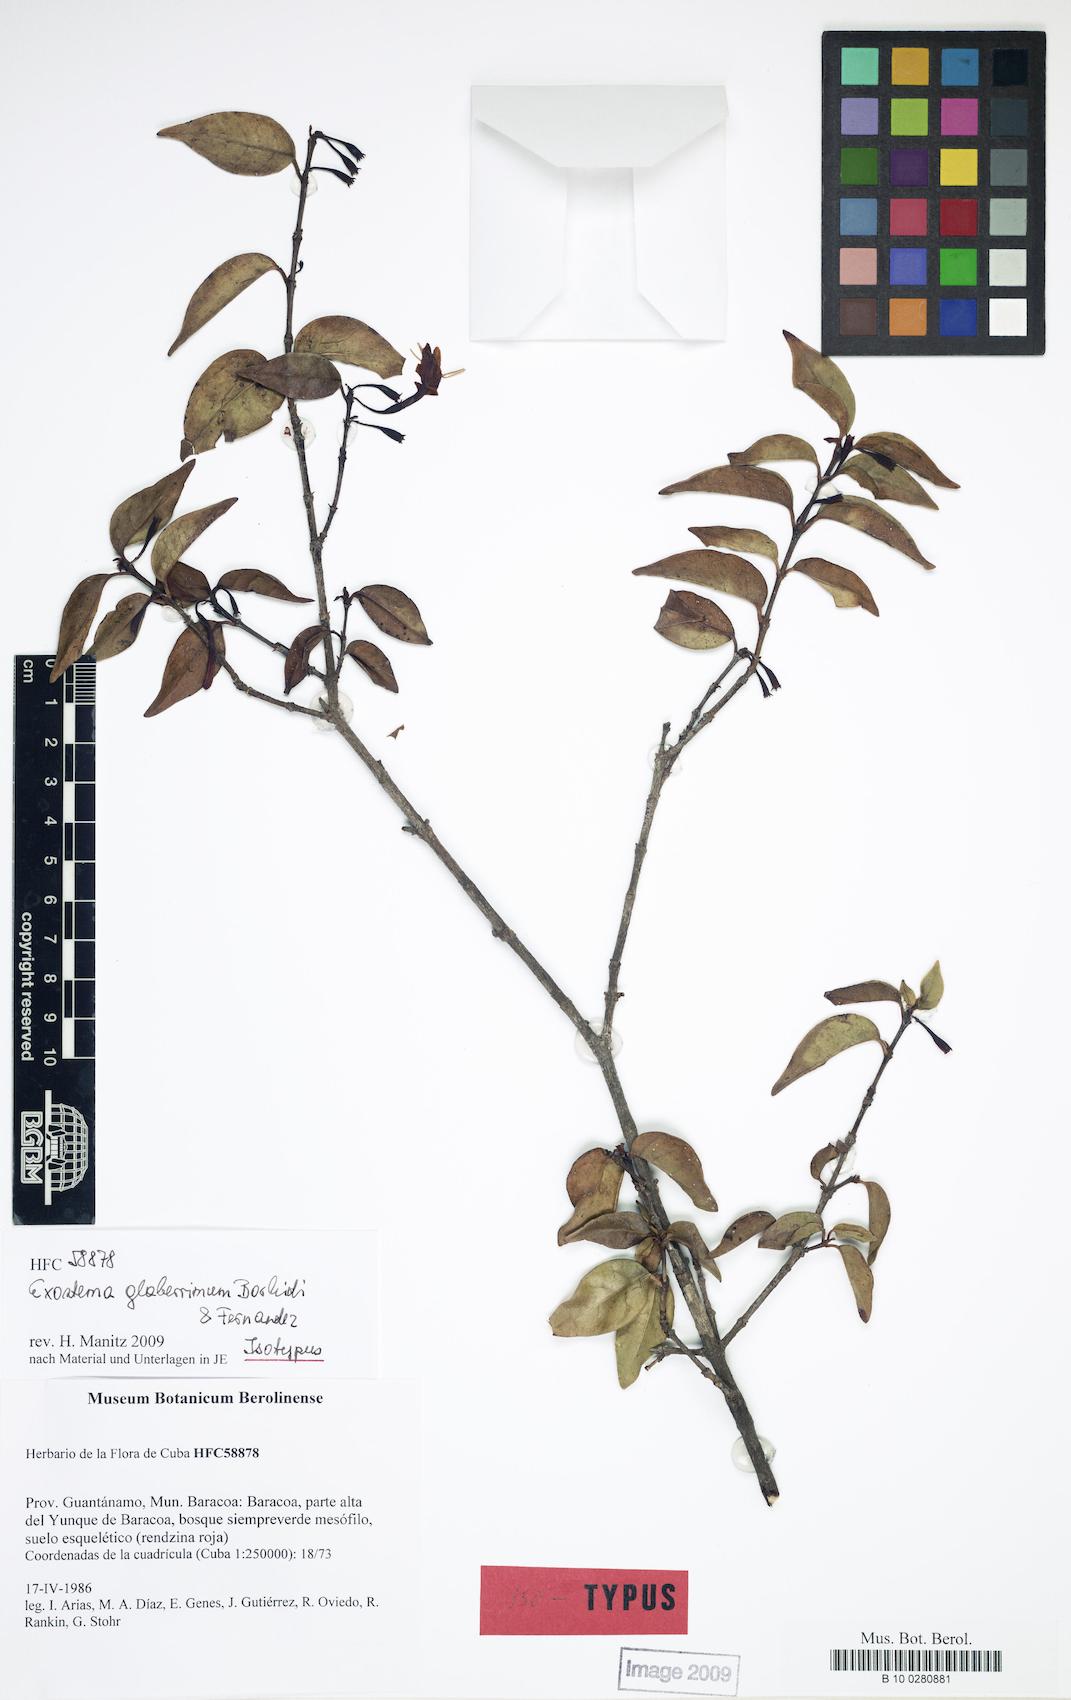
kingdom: Plantae
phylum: Tracheophyta
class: Magnoliopsida
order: Gentianales
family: Rubiaceae
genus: Exostema
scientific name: Exostema glaberrimum
